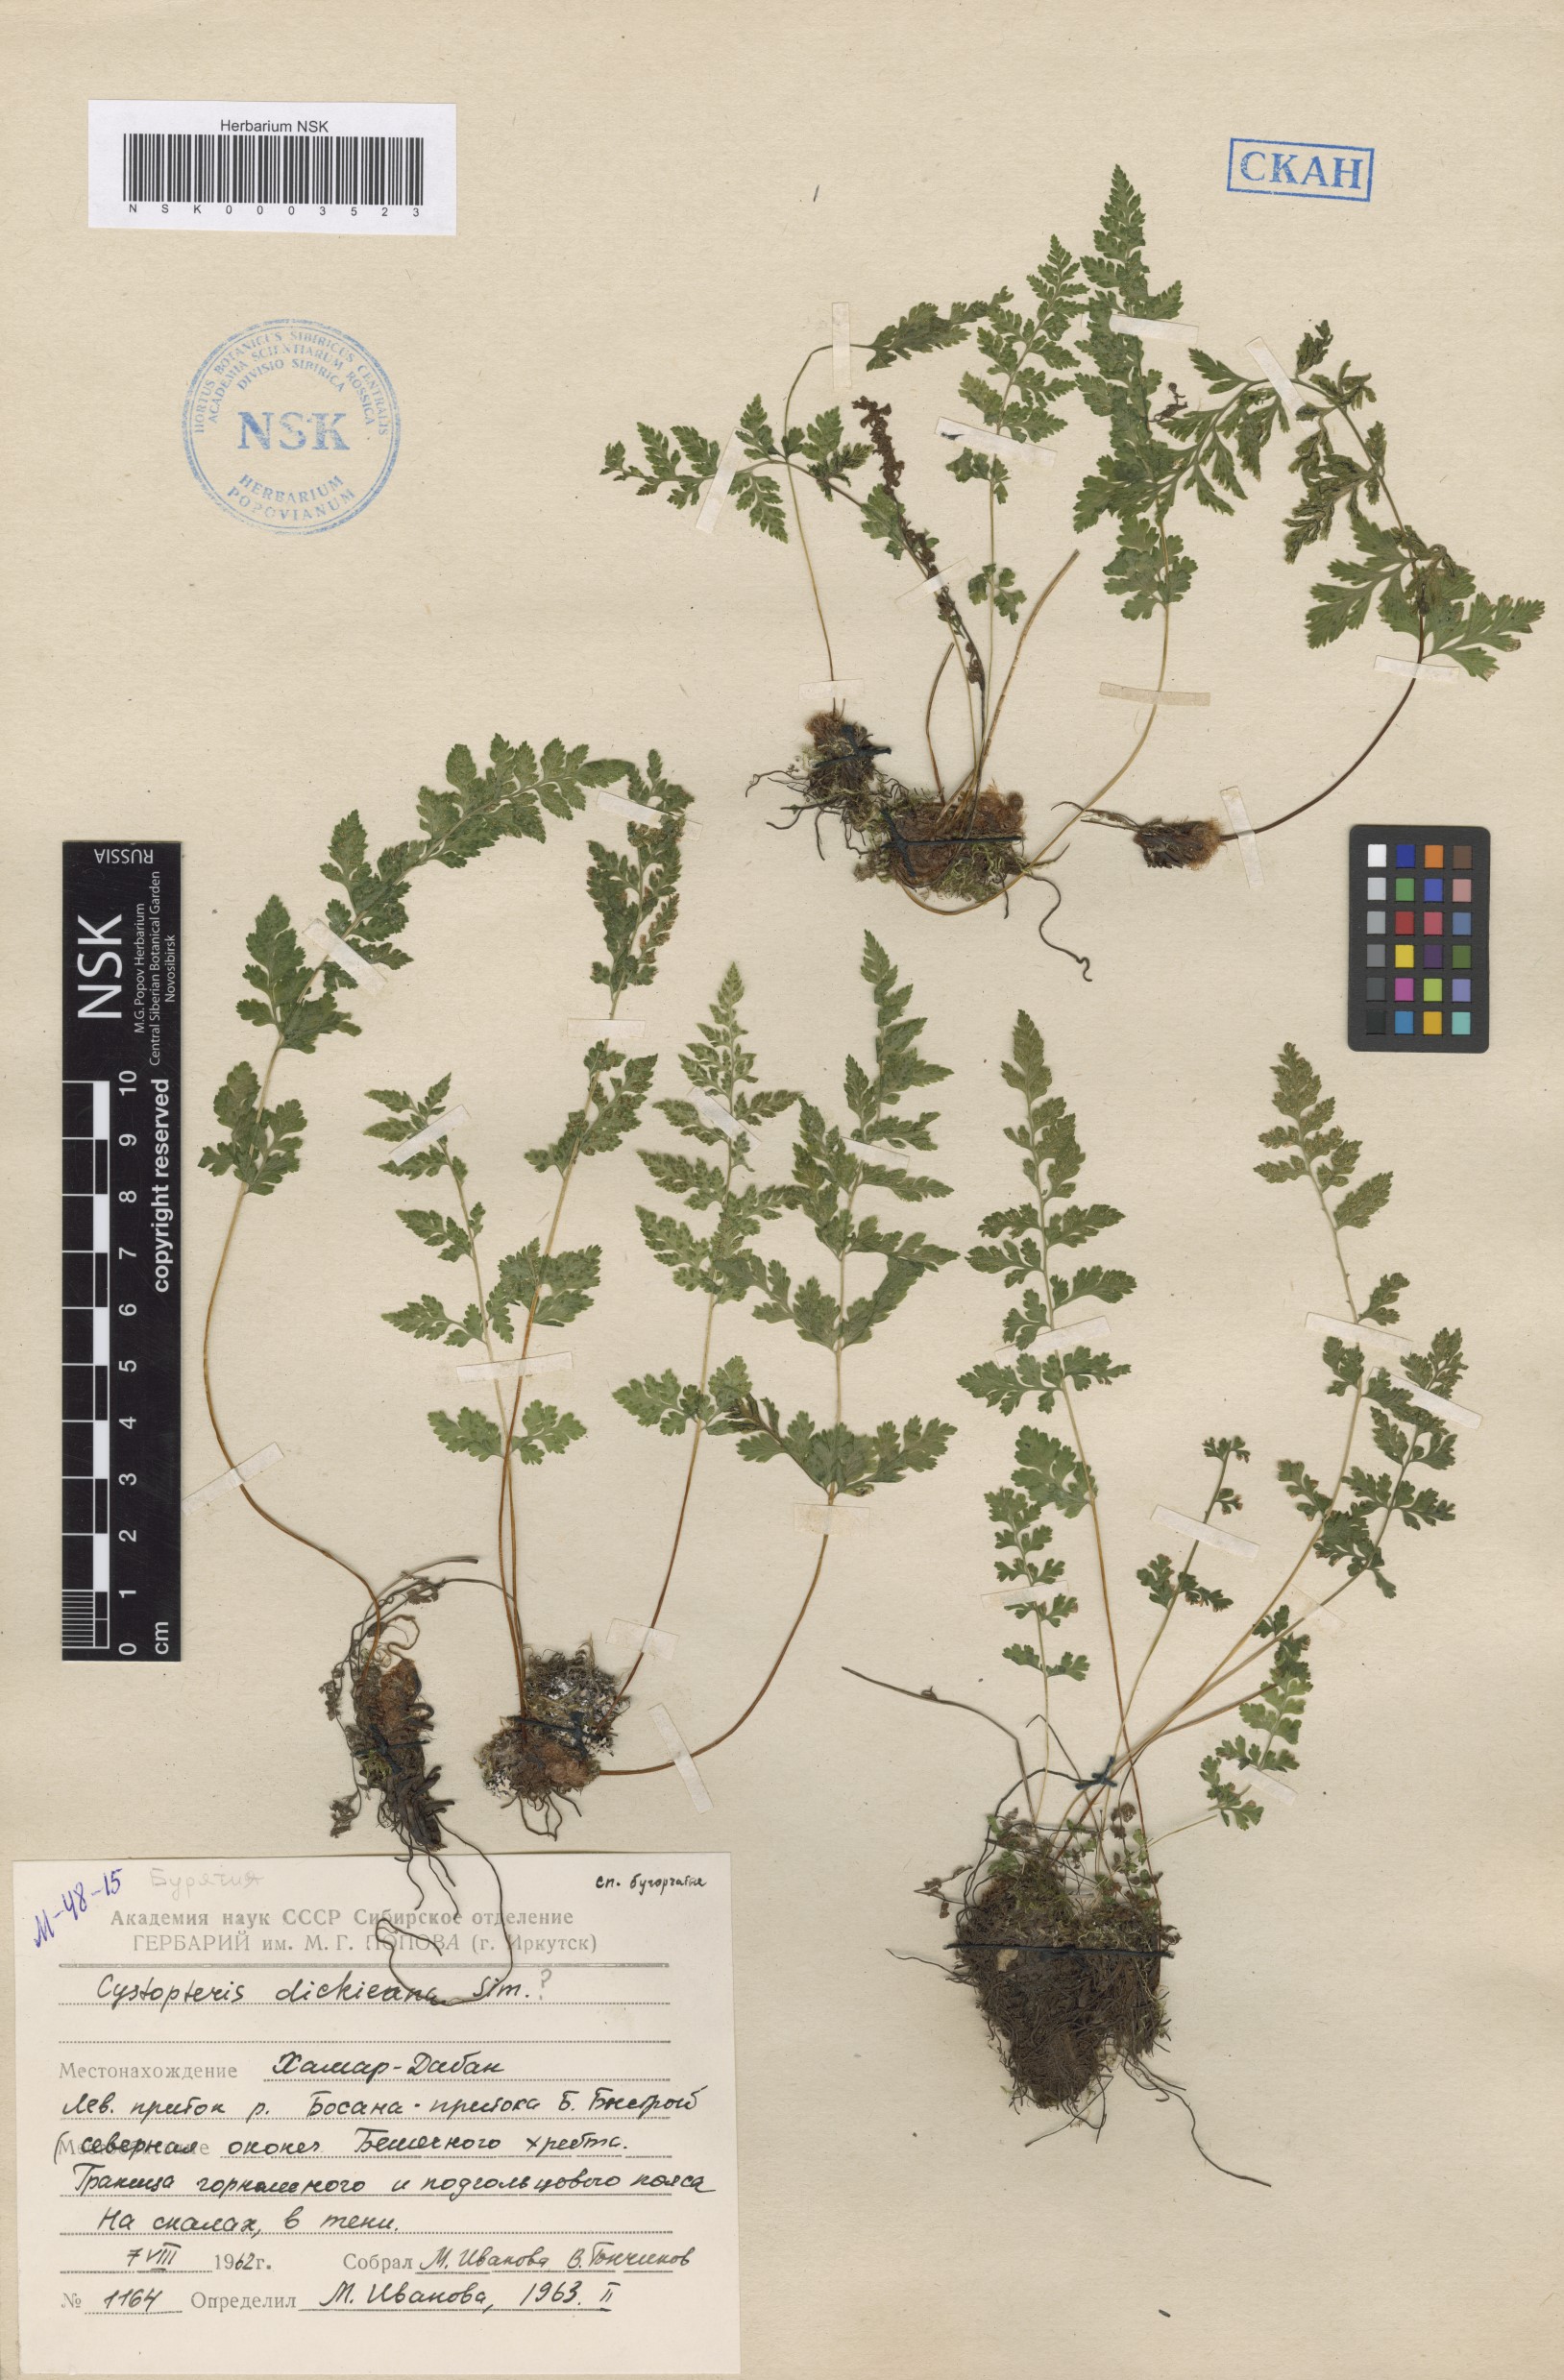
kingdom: Plantae
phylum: Tracheophyta
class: Polypodiopsida
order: Polypodiales
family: Cystopteridaceae
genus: Cystopteris
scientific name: Cystopteris dickieana
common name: Dickie's bladder-fern
